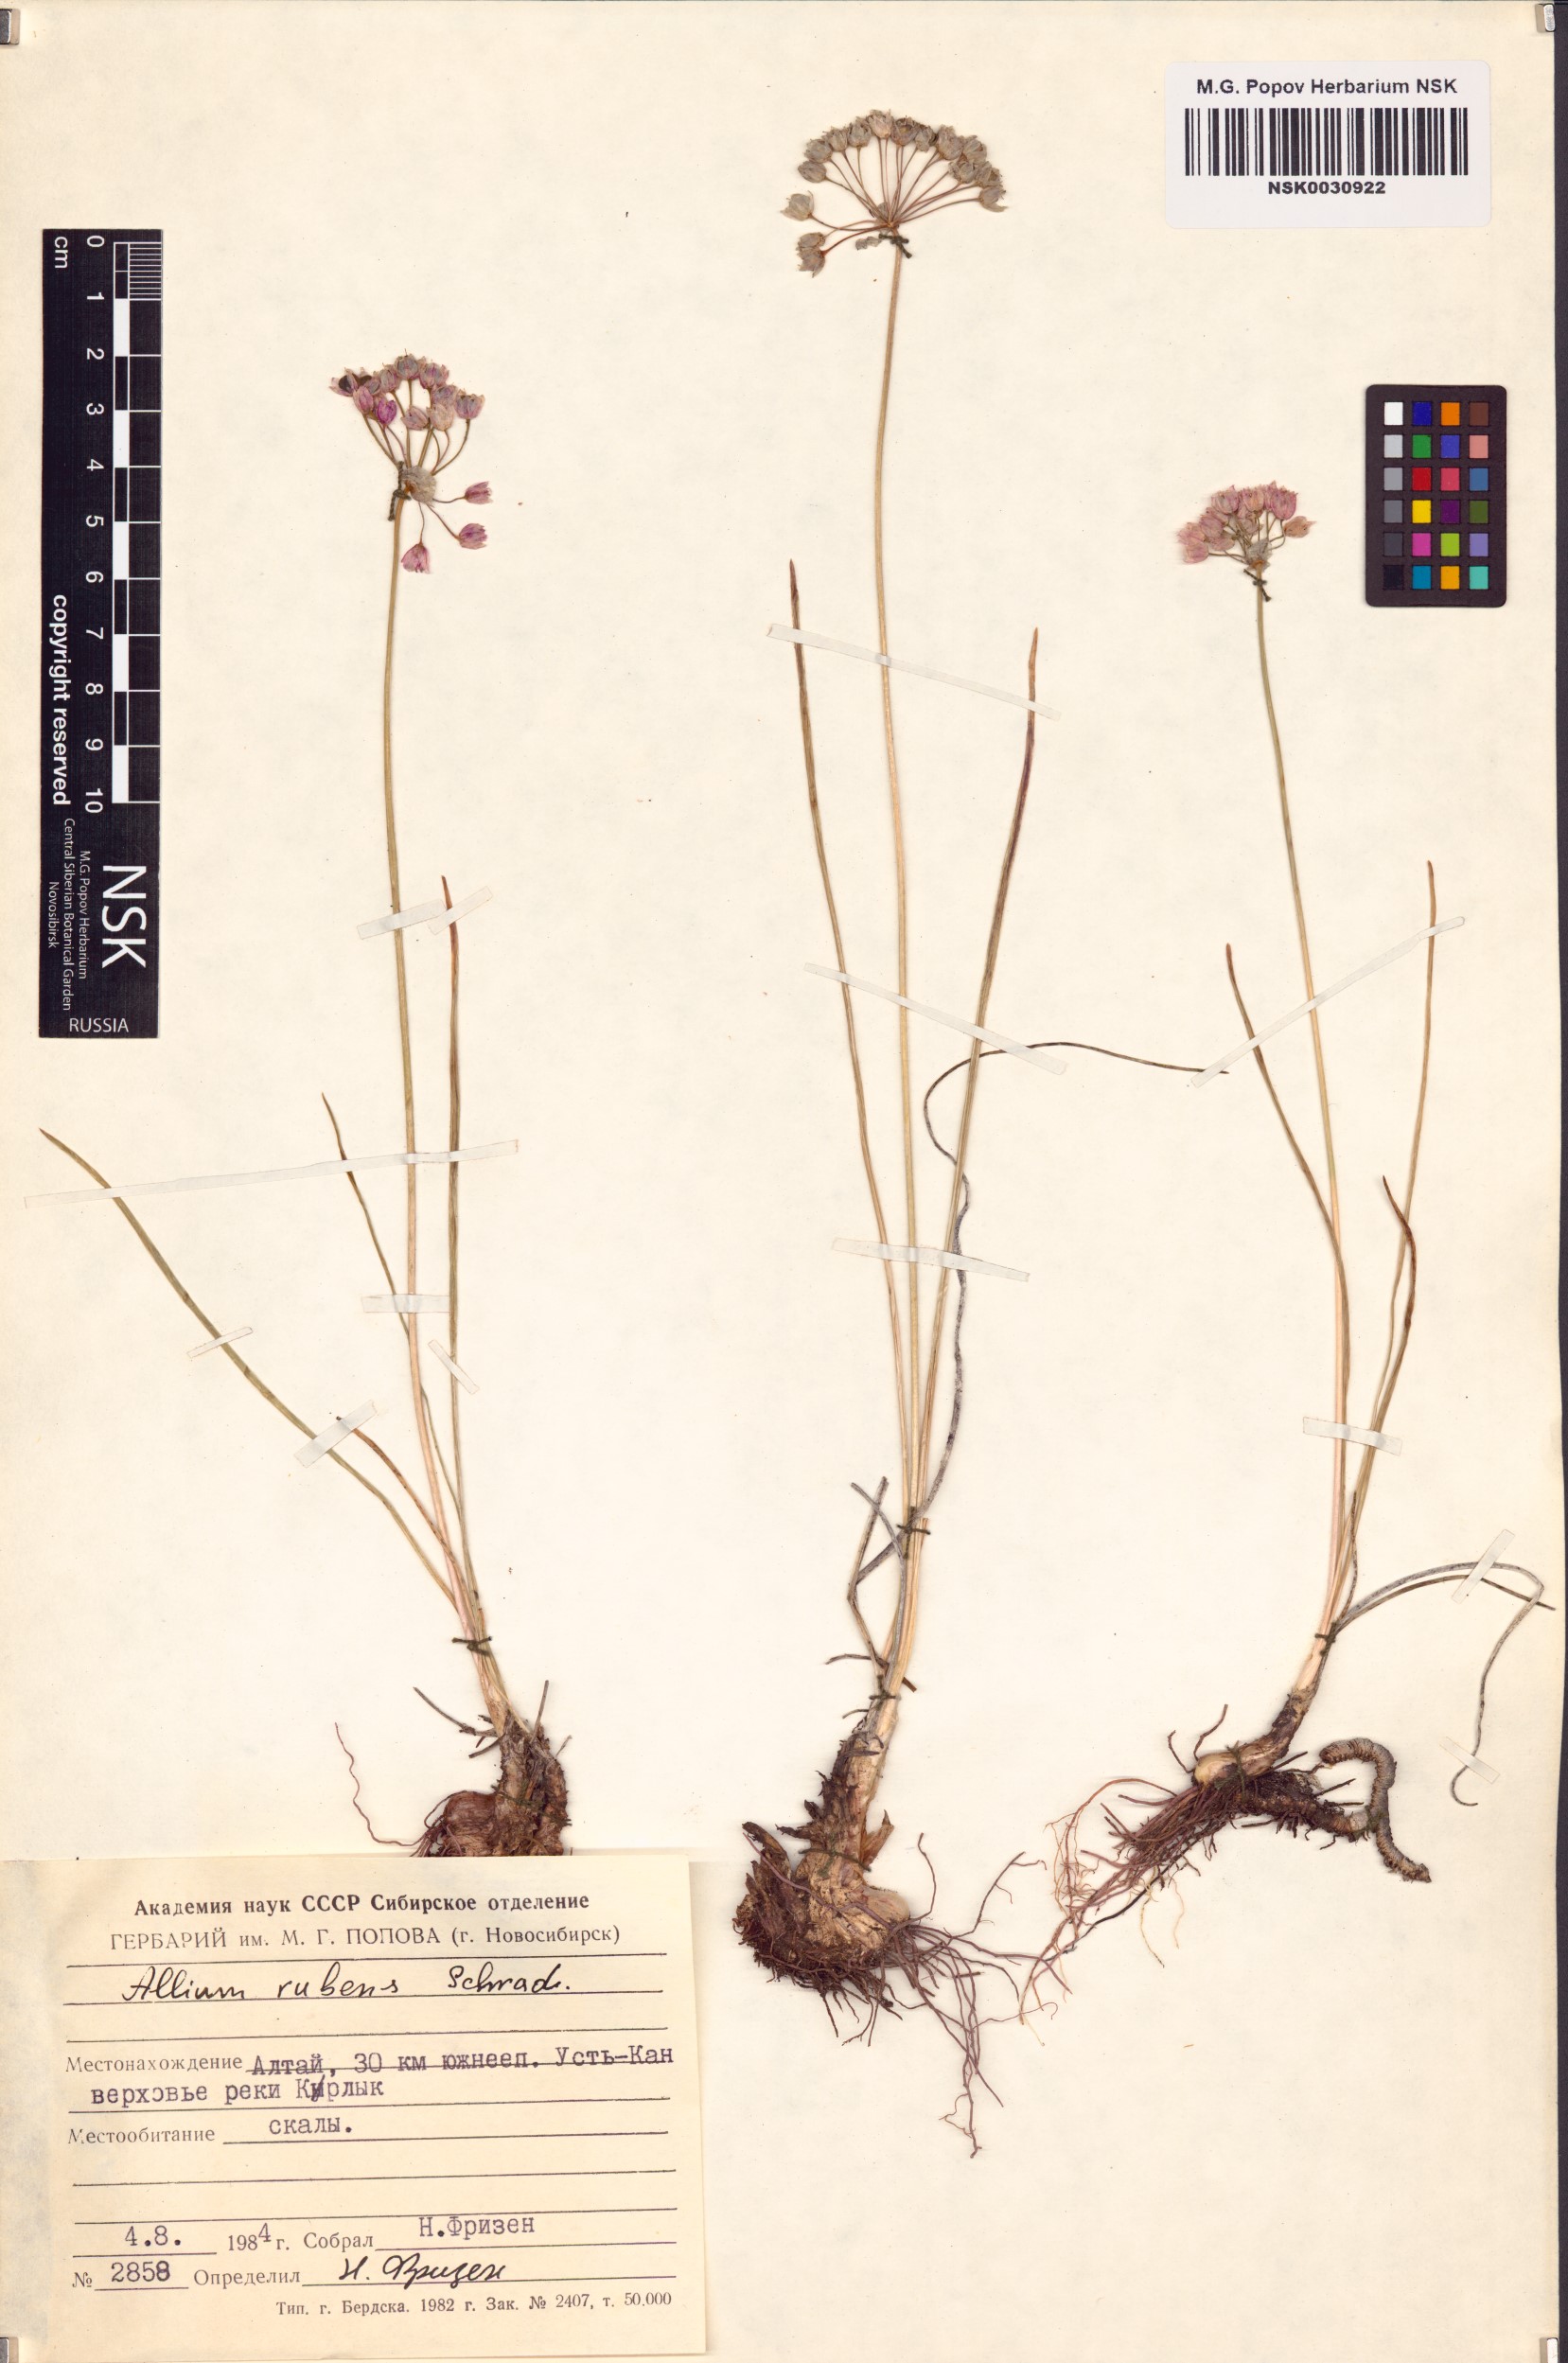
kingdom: Plantae
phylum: Tracheophyta
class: Liliopsida
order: Asparagales
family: Amaryllidaceae
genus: Allium
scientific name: Allium rubens
